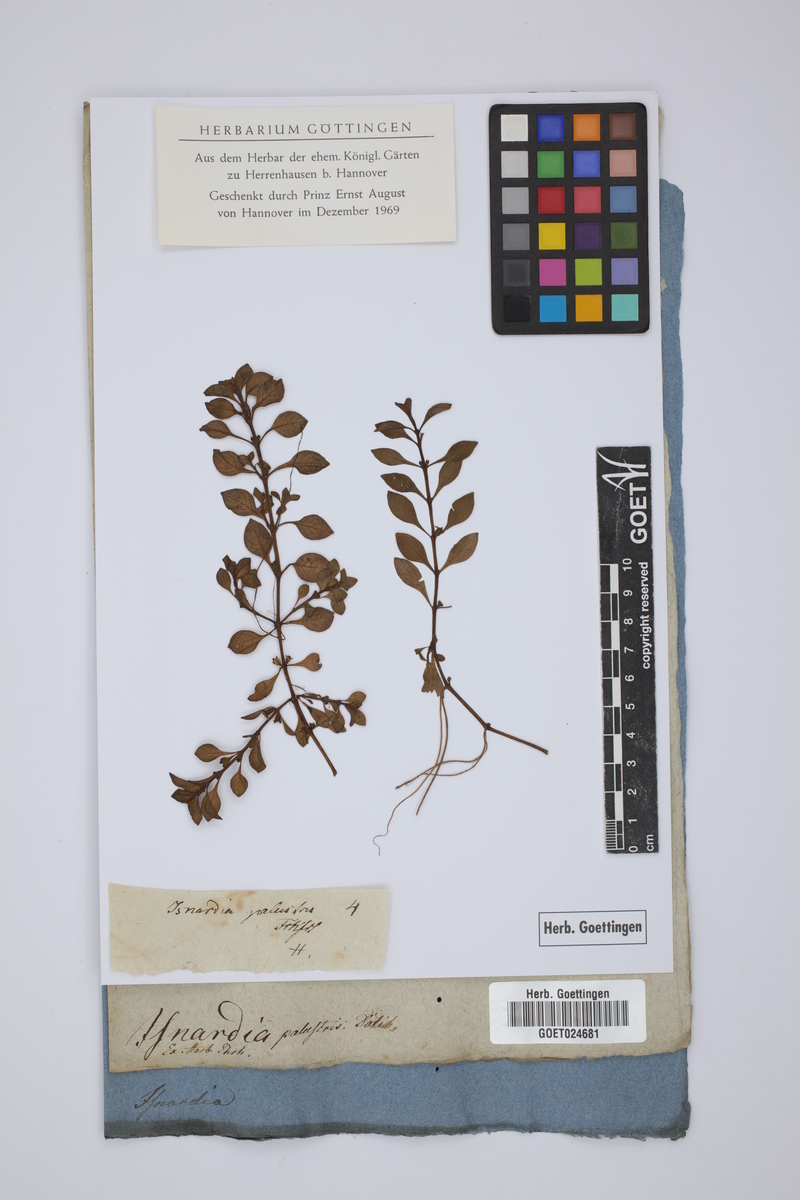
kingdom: Plantae
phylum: Tracheophyta
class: Magnoliopsida
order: Myrtales
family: Onagraceae
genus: Ludwigia
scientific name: Ludwigia palustris
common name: Hampshire-purslane
